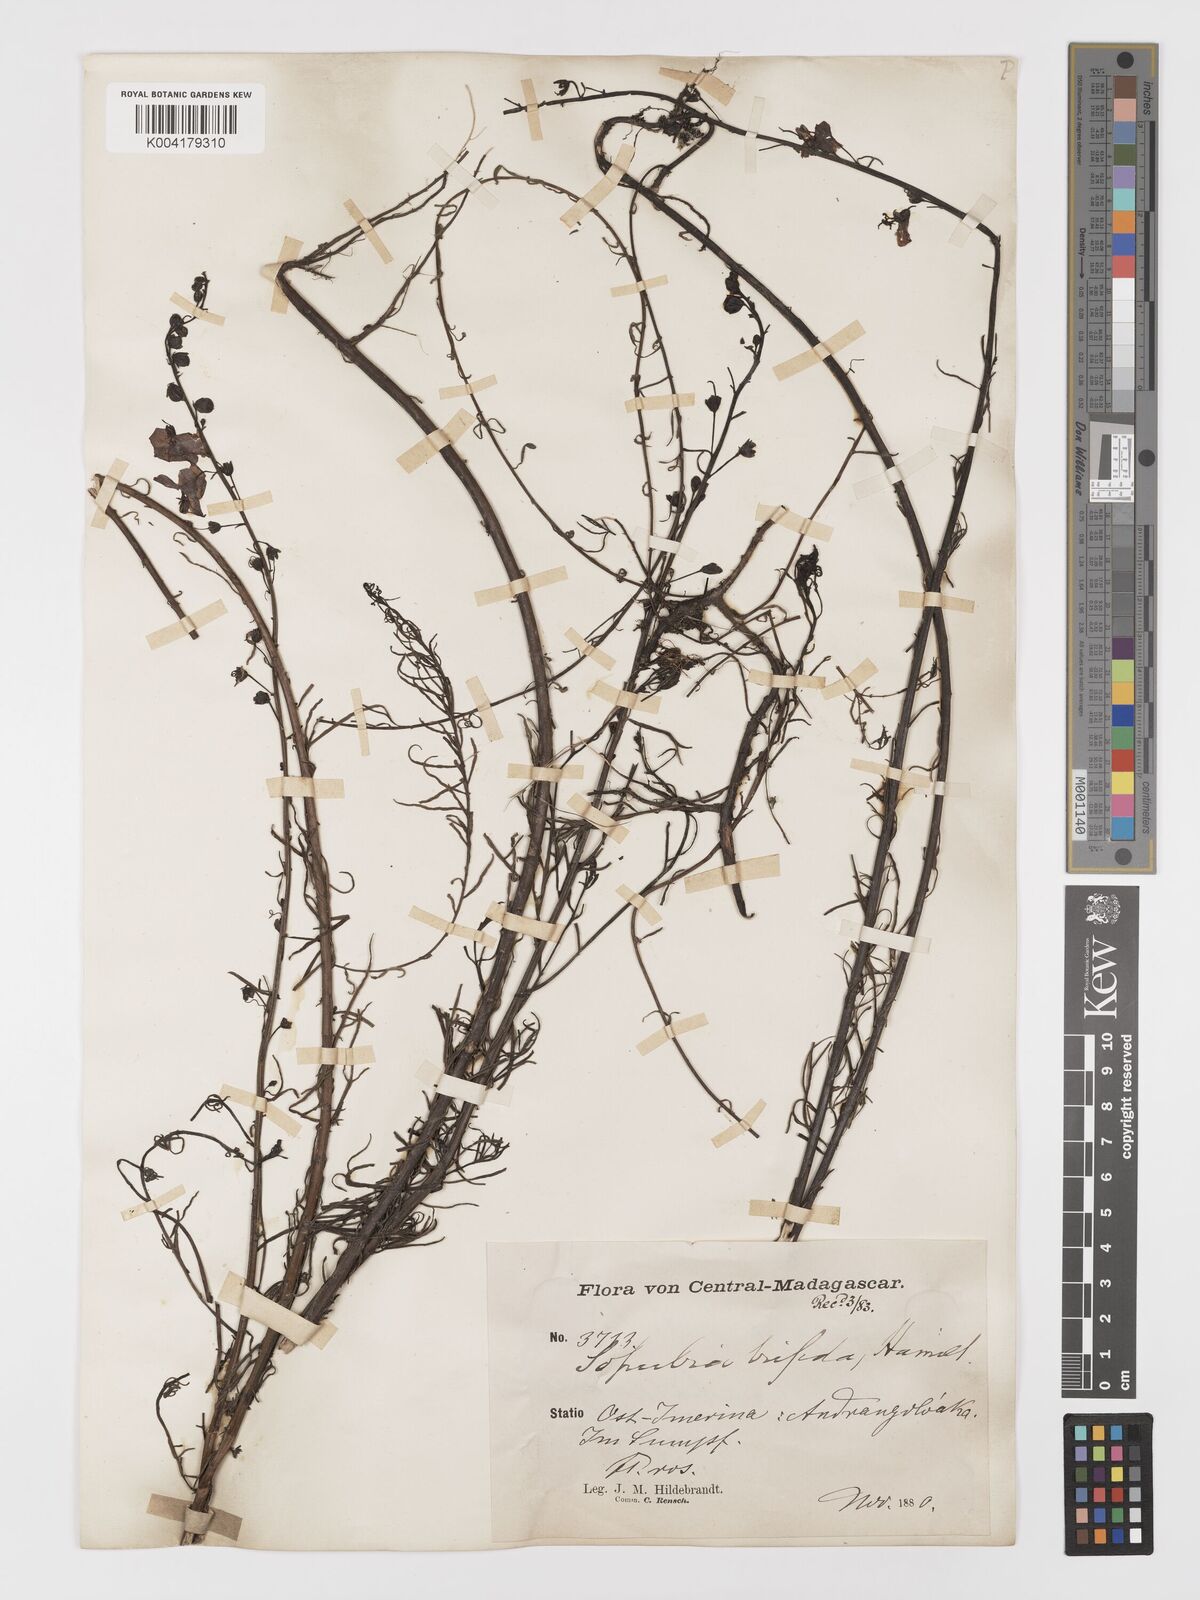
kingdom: Plantae
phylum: Tracheophyta
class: Magnoliopsida
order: Lamiales
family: Orobanchaceae
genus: Sopubia
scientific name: Sopubia trifida
